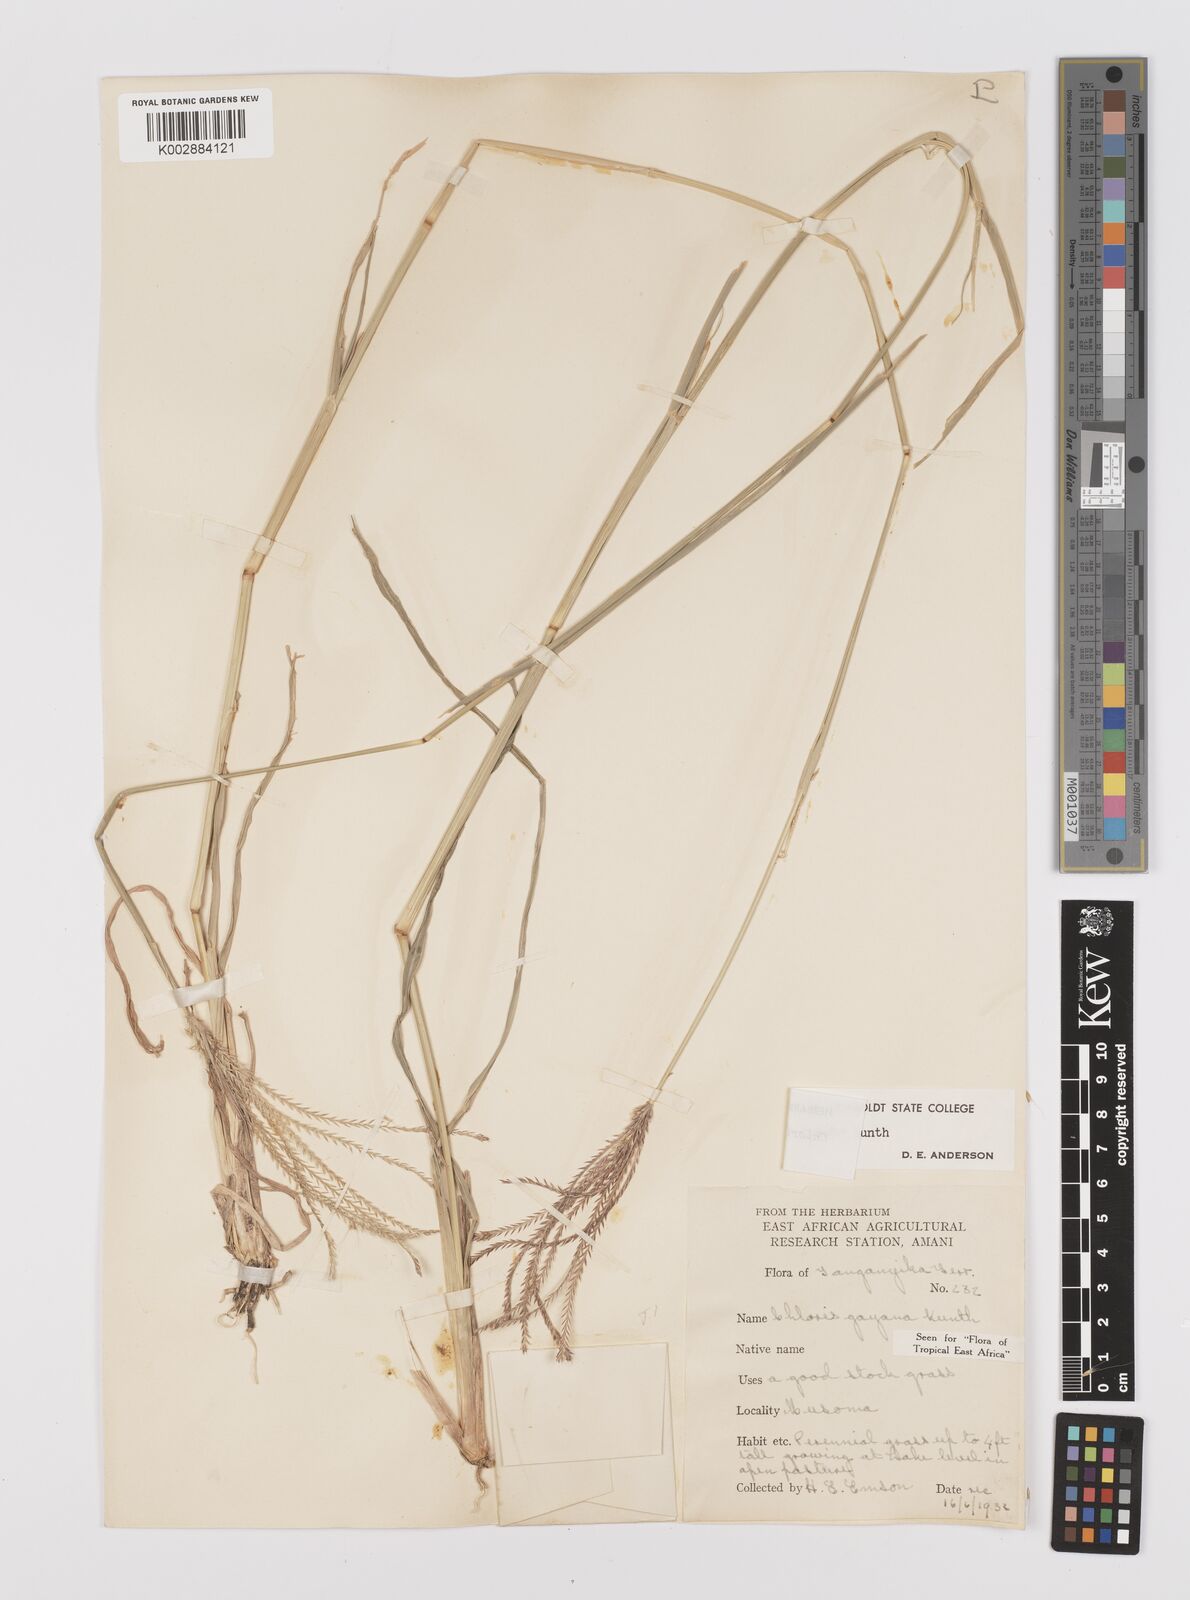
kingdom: Plantae
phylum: Tracheophyta
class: Liliopsida
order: Poales
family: Poaceae
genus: Chloris
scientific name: Chloris gayana
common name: Rhodes grass
